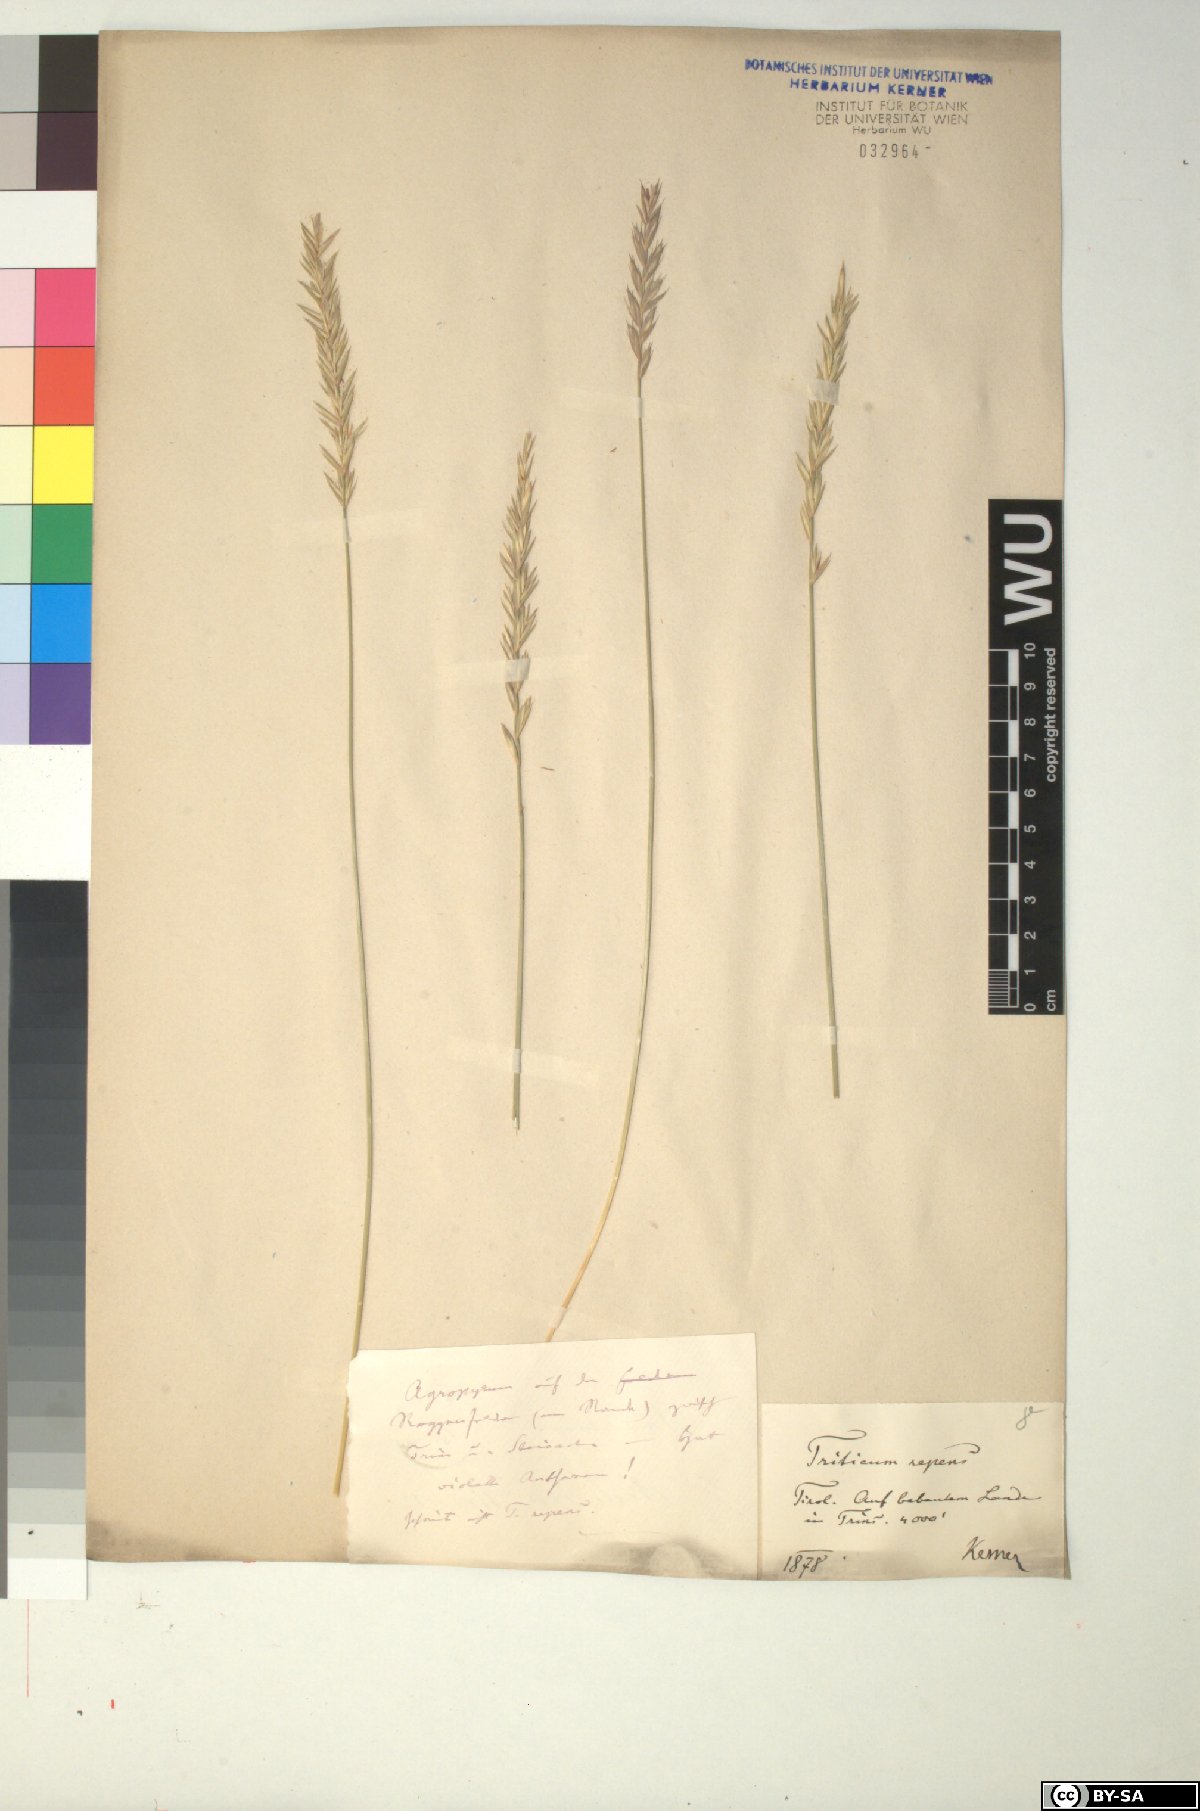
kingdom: Plantae
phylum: Tracheophyta
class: Liliopsida
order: Poales
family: Poaceae
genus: Elymus
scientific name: Elymus repens
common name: Quackgrass
